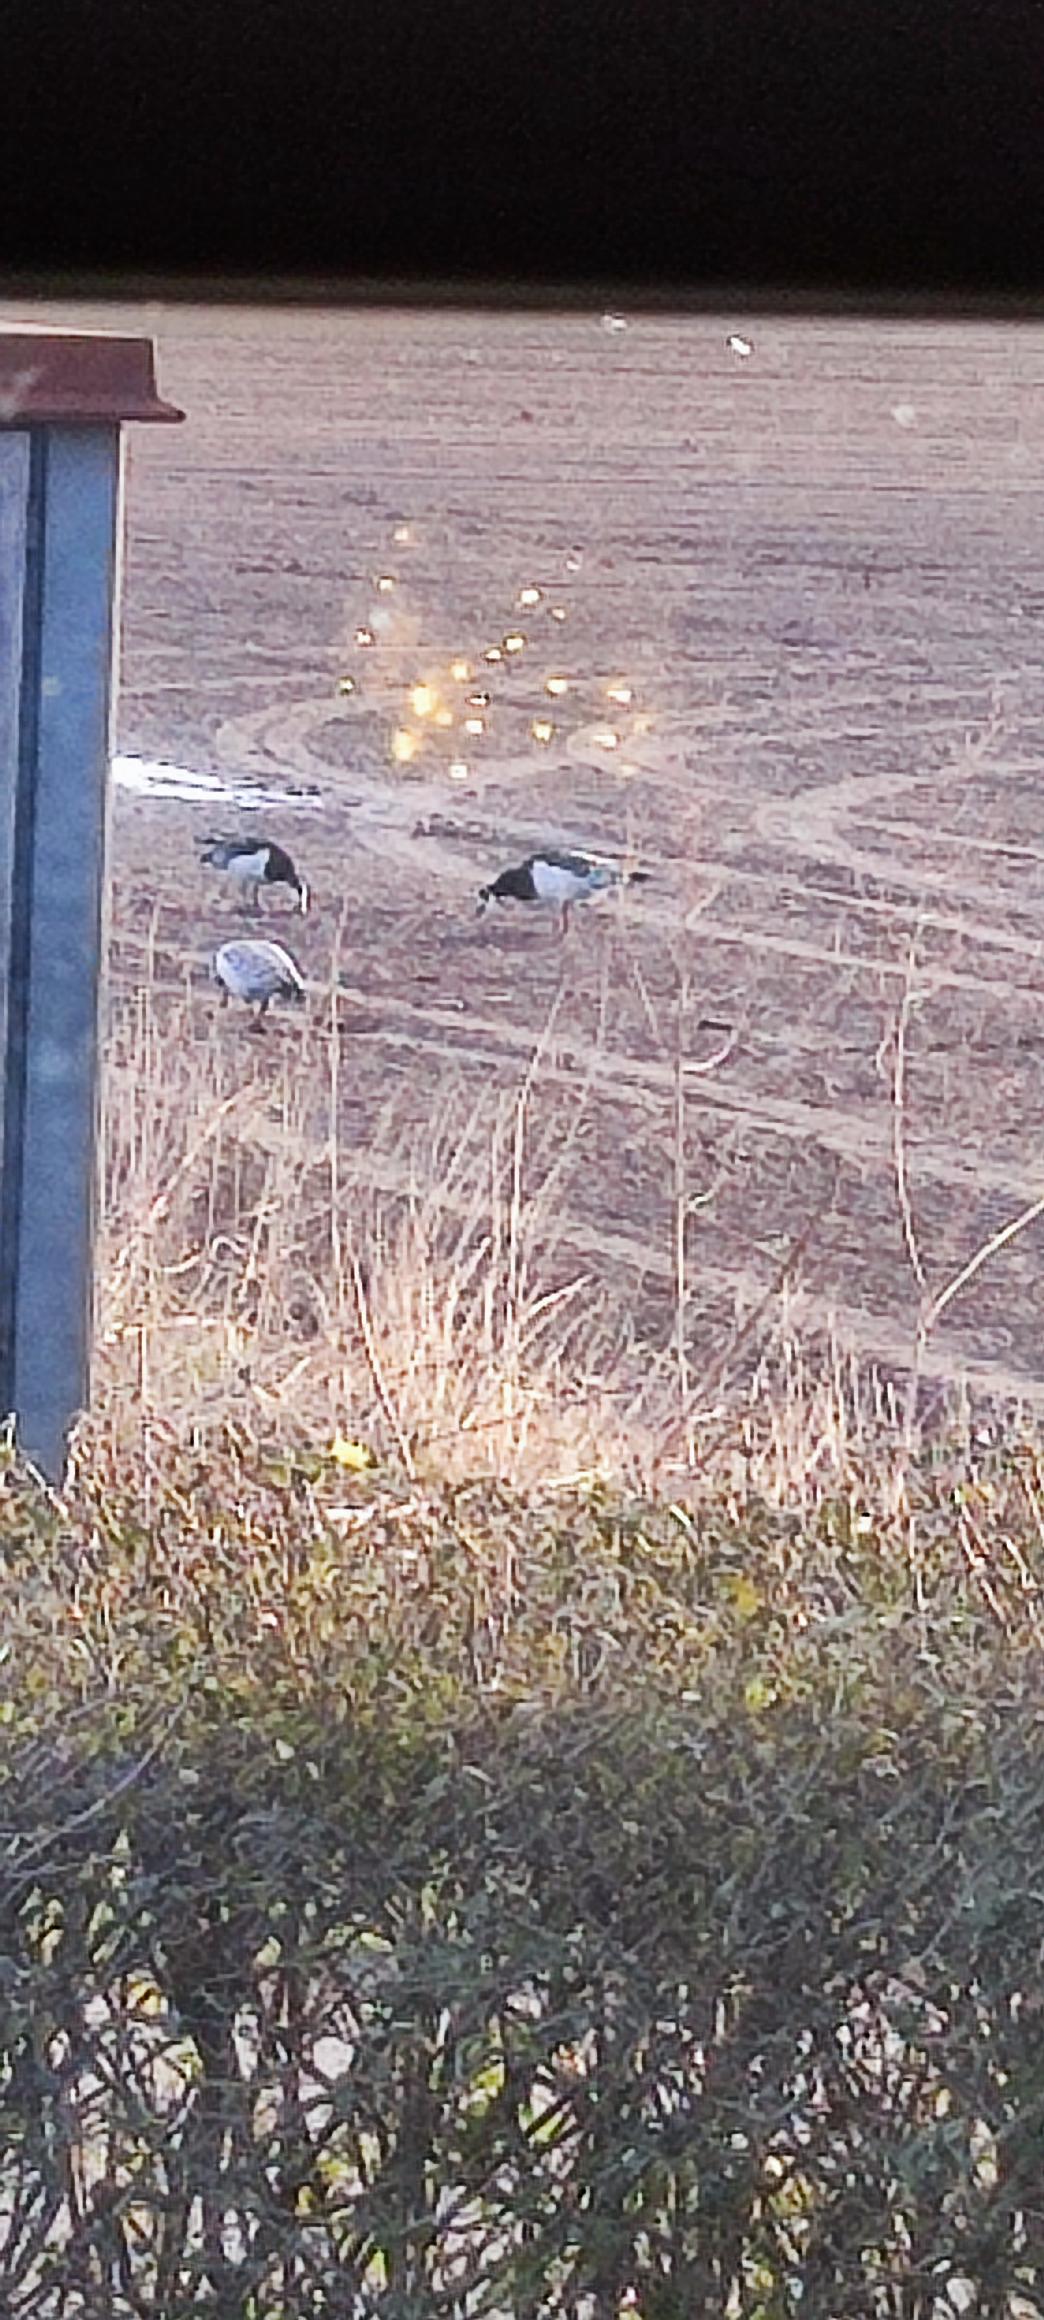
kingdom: Animalia
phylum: Chordata
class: Aves
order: Anseriformes
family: Anatidae
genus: Branta
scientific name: Branta leucopsis
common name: Bramgås
